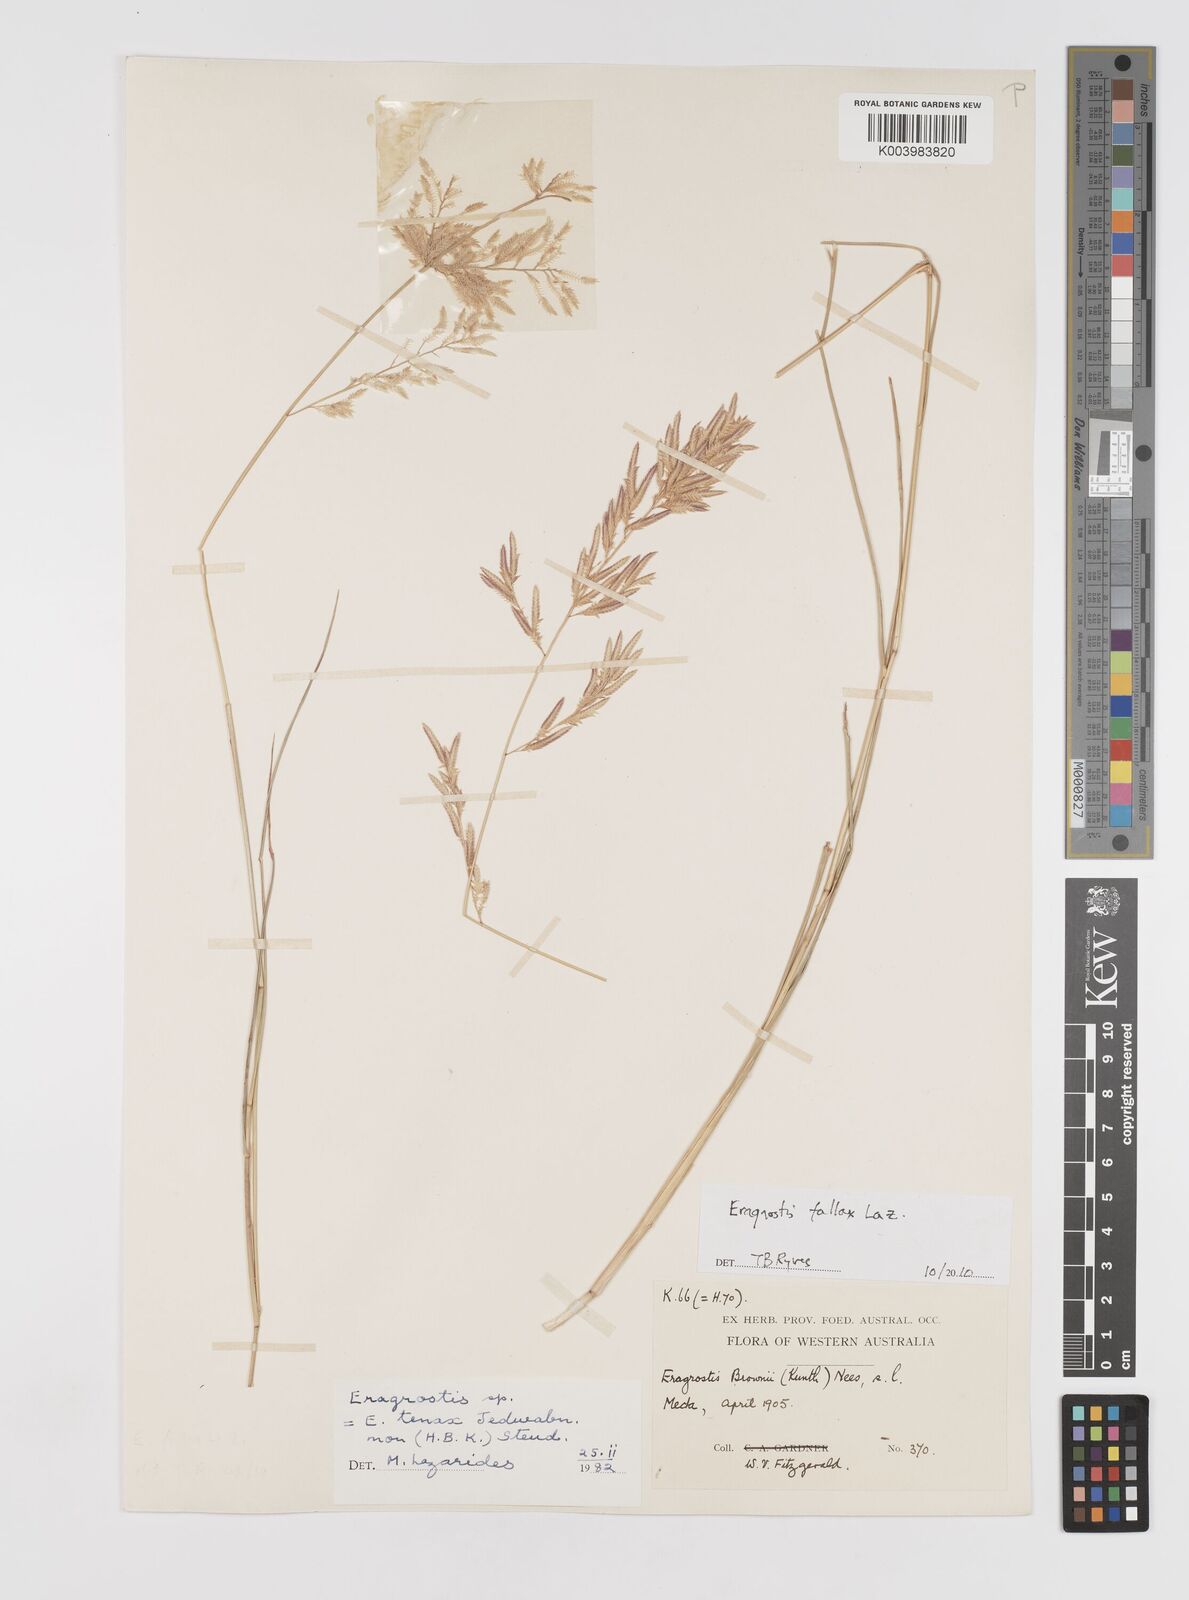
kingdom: Plantae
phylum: Tracheophyta
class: Liliopsida
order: Poales
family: Poaceae
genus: Eragrostis
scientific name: Eragrostis fallax
